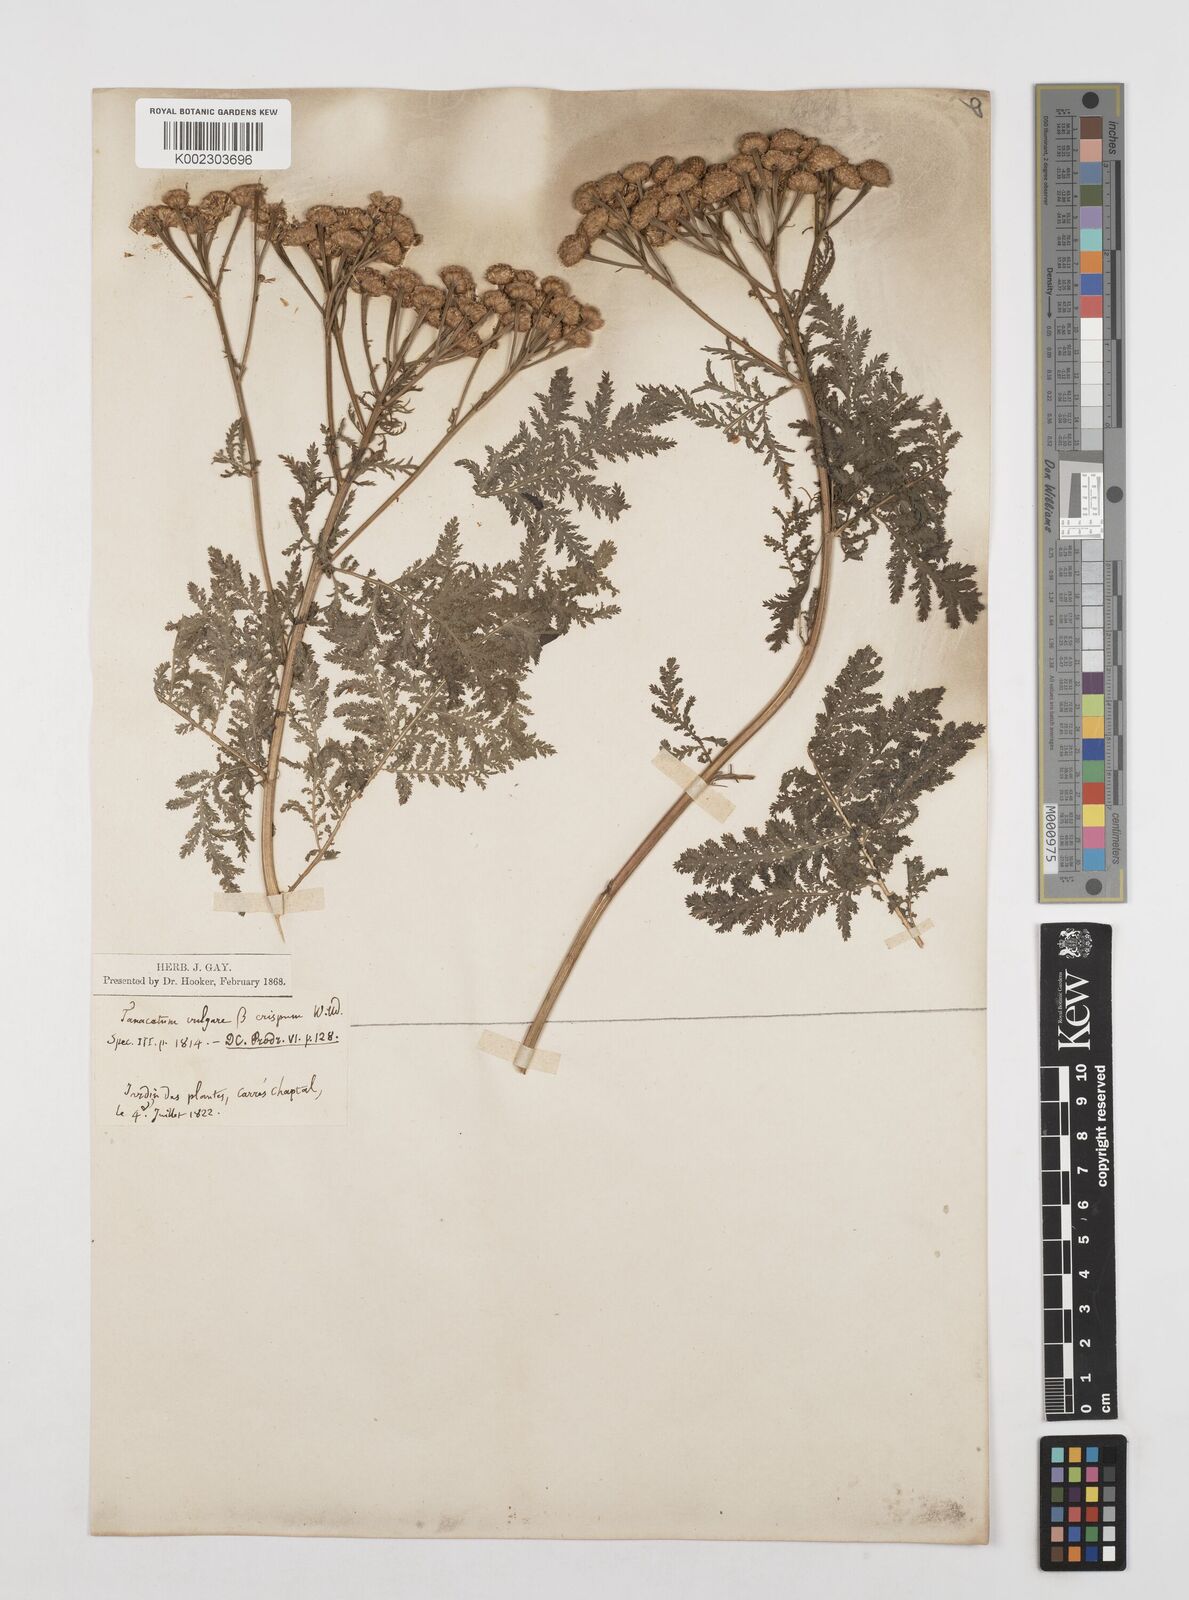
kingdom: Plantae
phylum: Tracheophyta
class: Magnoliopsida
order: Asterales
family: Asteraceae
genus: Tanacetum
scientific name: Tanacetum vulgare
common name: Common tansy
